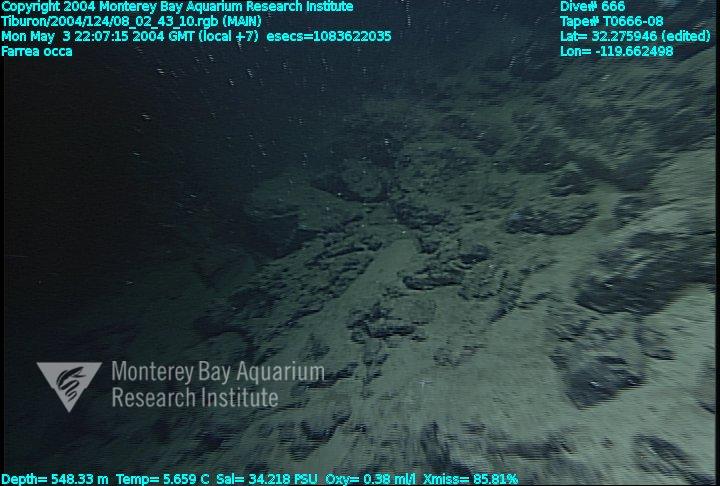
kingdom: Animalia
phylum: Porifera
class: Hexactinellida
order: Sceptrulophora
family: Farreidae
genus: Farrea
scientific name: Farrea occa
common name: Reversed glass sponge
